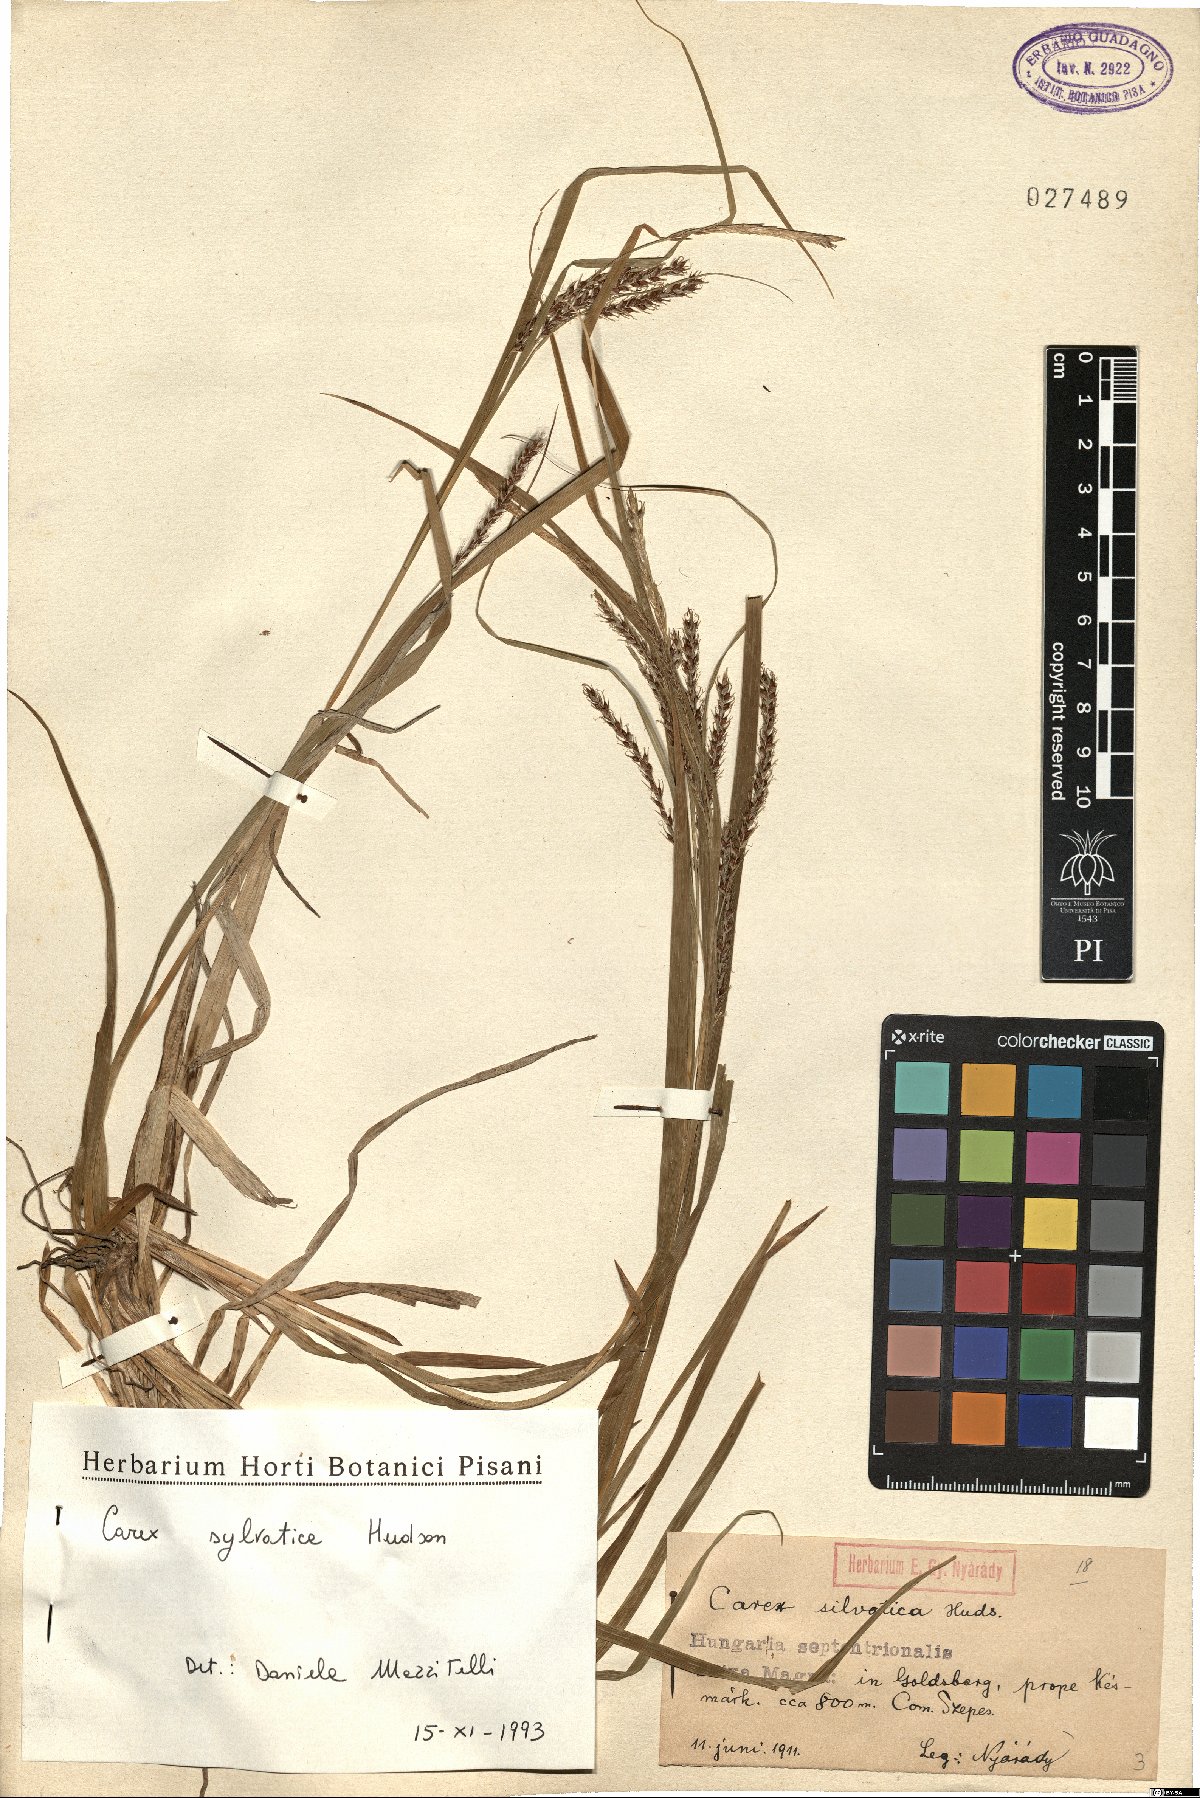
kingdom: Plantae
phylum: Tracheophyta
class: Liliopsida
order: Poales
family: Cyperaceae
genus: Carex
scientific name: Carex sylvatica
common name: Wood-sedge
